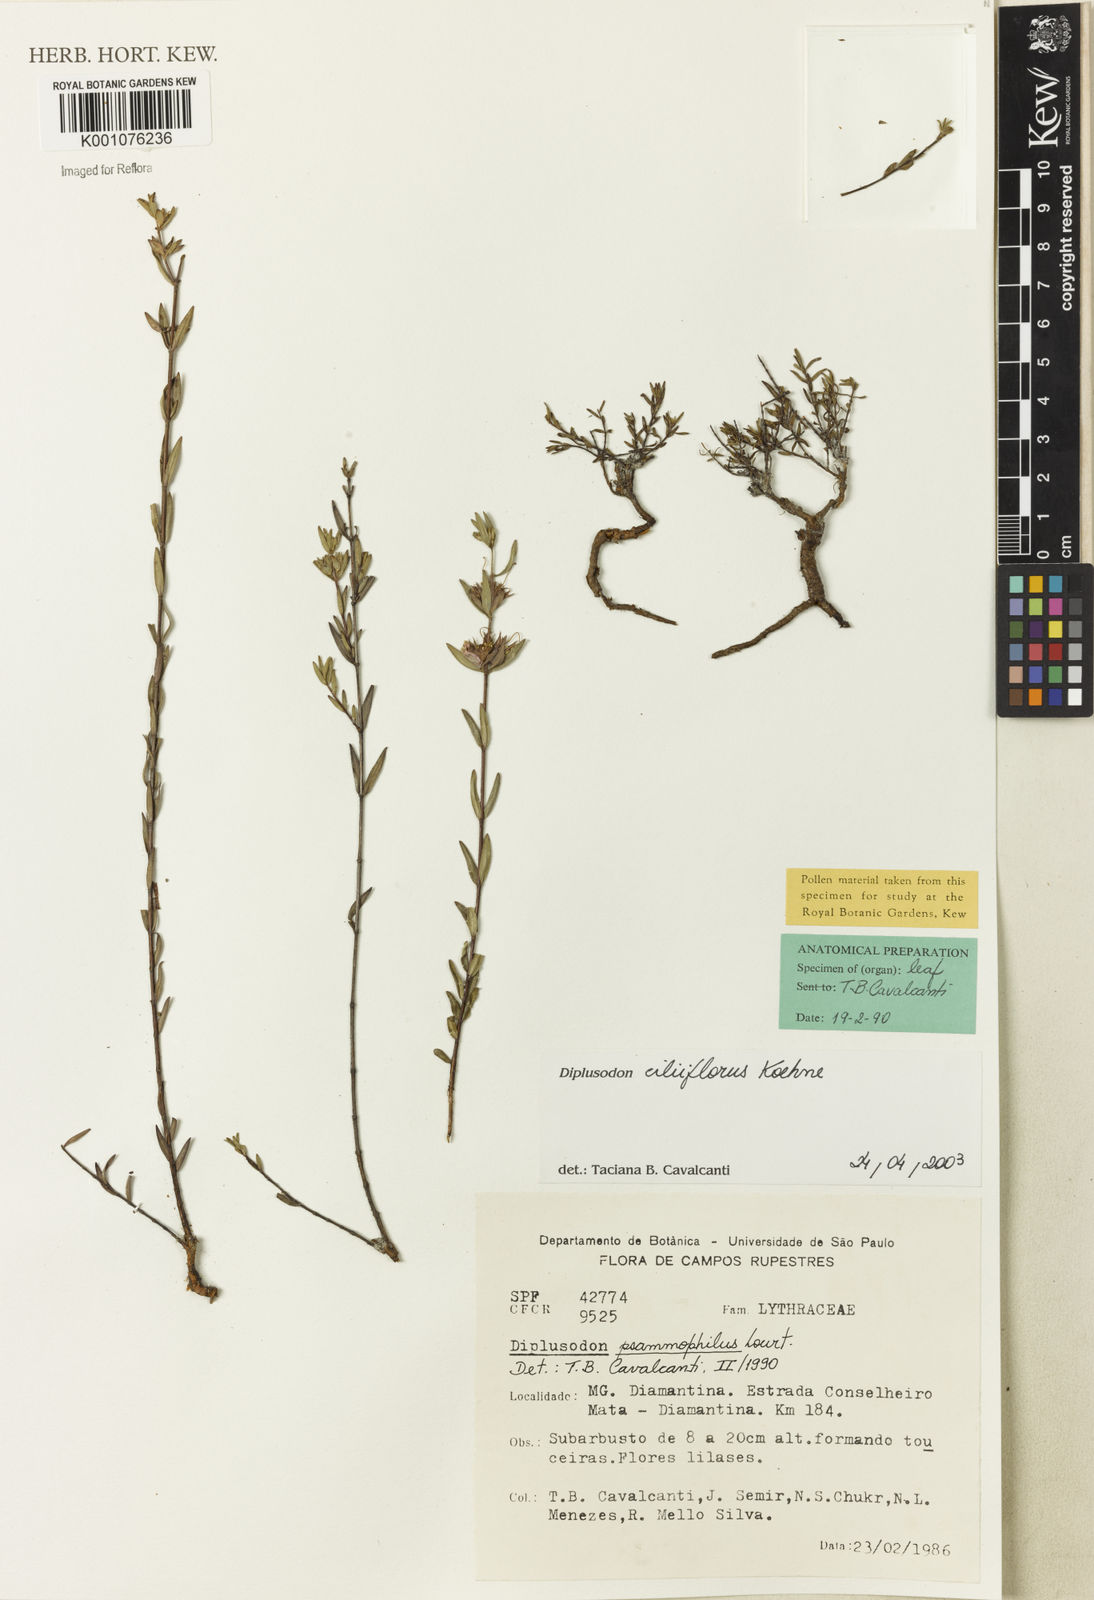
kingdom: Plantae
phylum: Tracheophyta
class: Magnoliopsida
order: Myrtales
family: Lythraceae
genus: Diplusodon
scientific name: Diplusodon ciliiflorus
